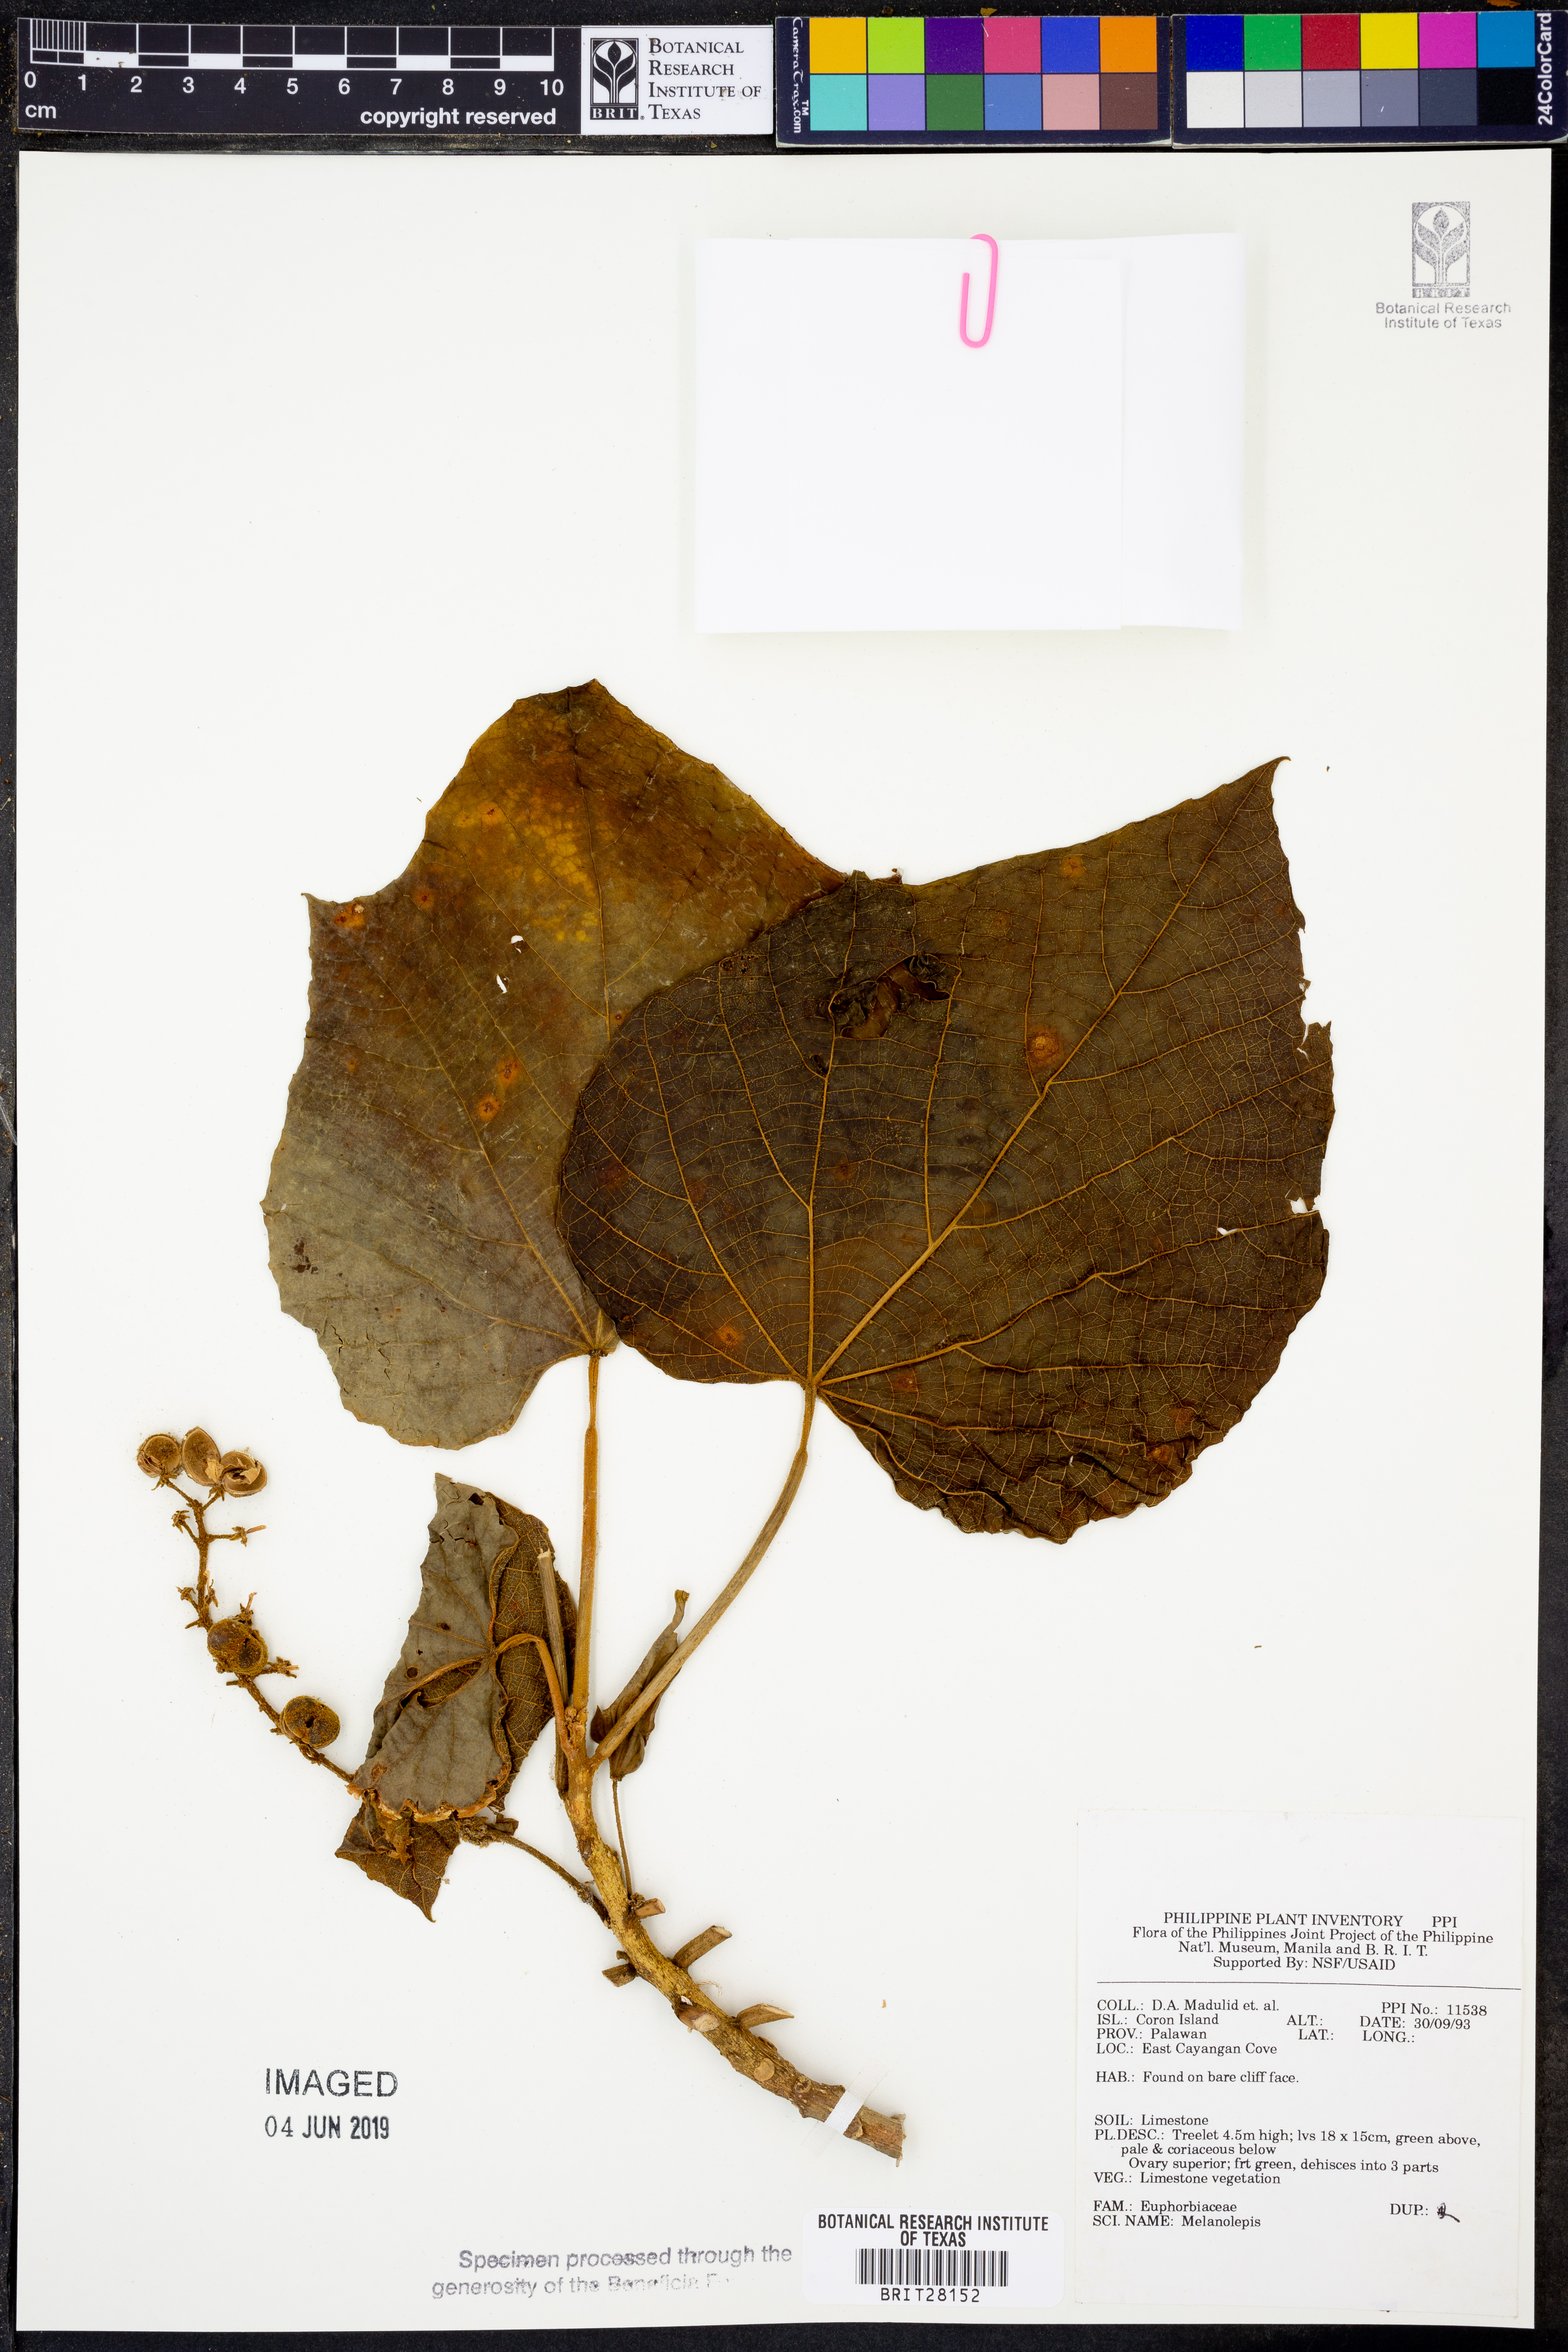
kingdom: Plantae
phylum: Tracheophyta
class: Magnoliopsida
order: Malpighiales
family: Euphorbiaceae
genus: Melanolepis
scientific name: Melanolepis
